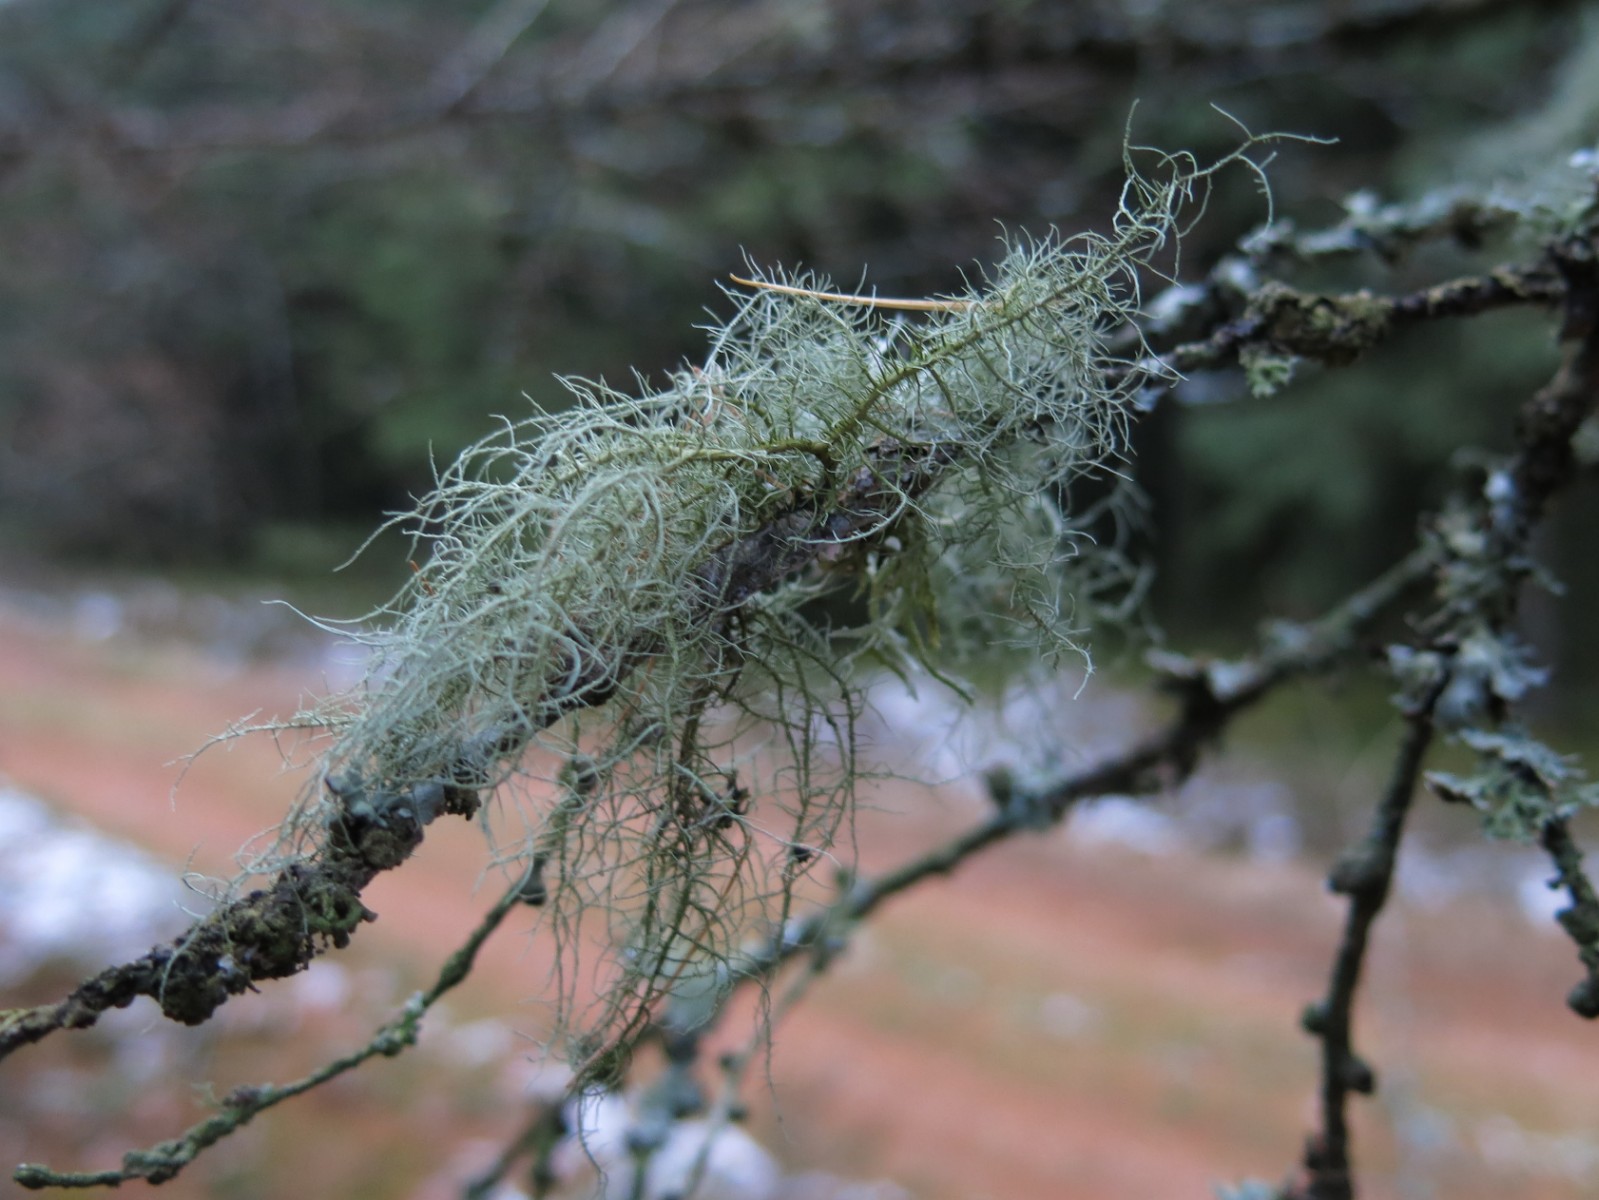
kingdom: Fungi
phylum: Ascomycota
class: Lecanoromycetes
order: Lecanorales
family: Parmeliaceae
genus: Usnea
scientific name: Usnea dasypoga
